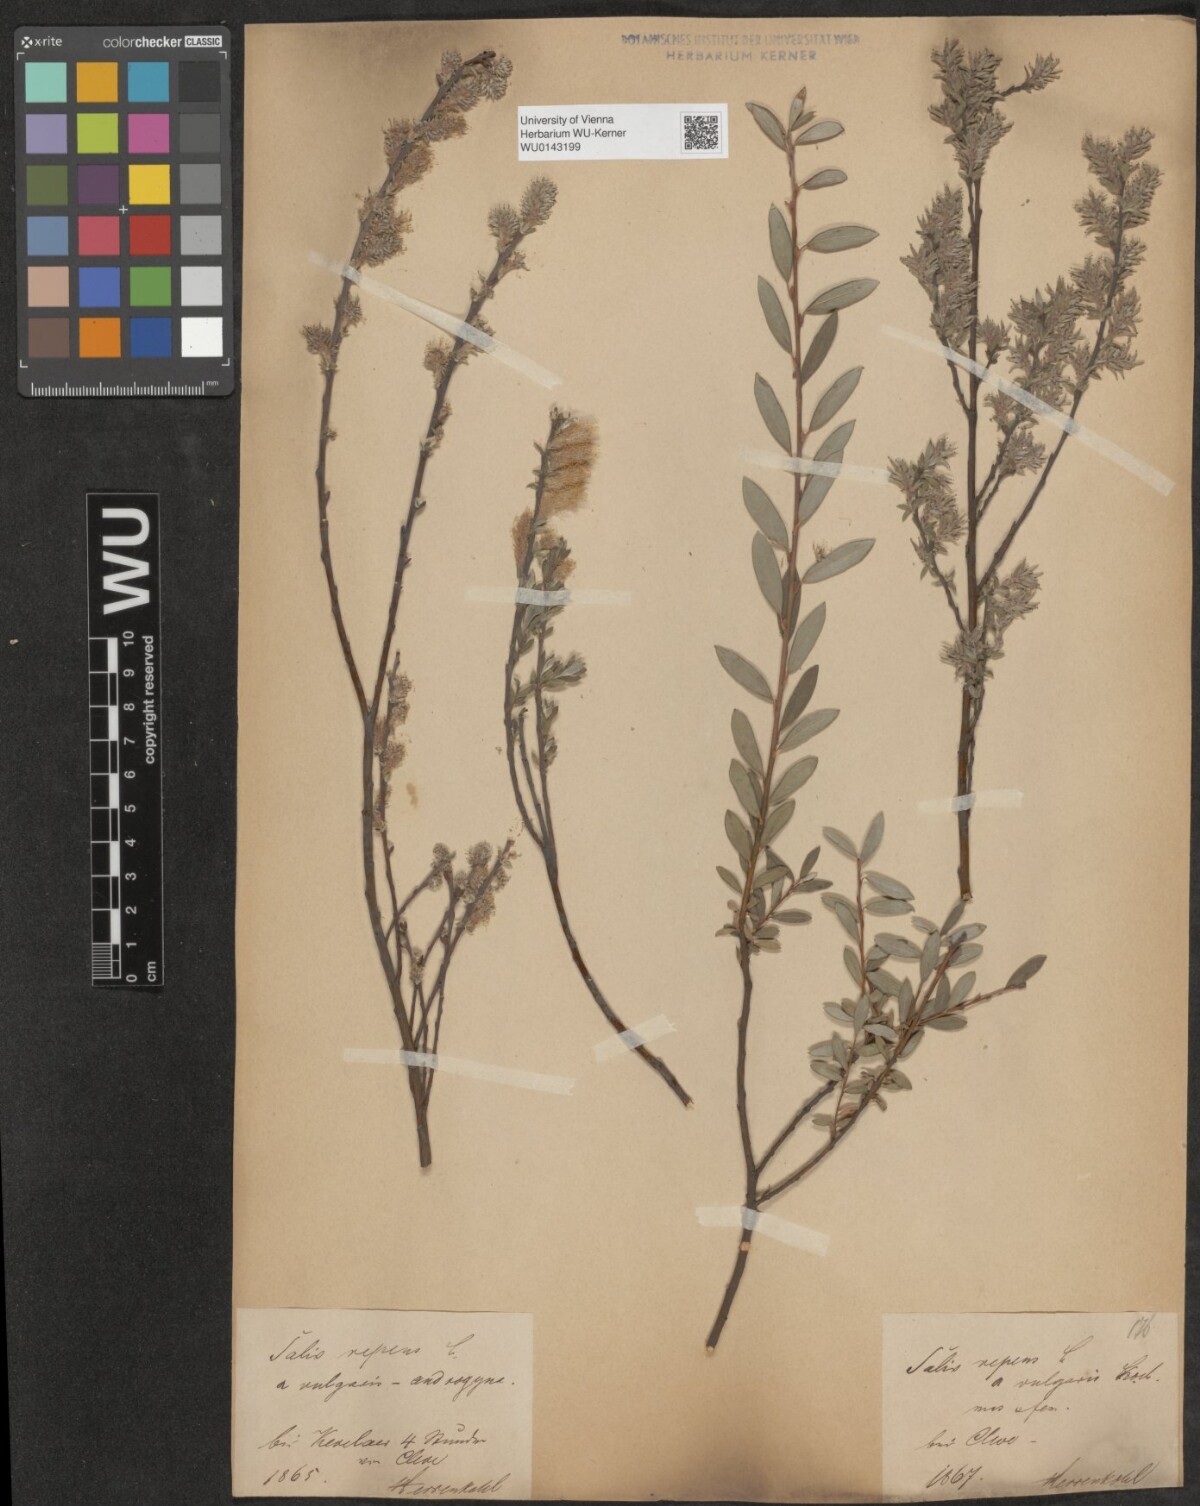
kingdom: Plantae
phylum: Tracheophyta
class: Magnoliopsida
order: Malpighiales
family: Salicaceae
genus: Salix
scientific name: Salix repens
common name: Creeping willow
